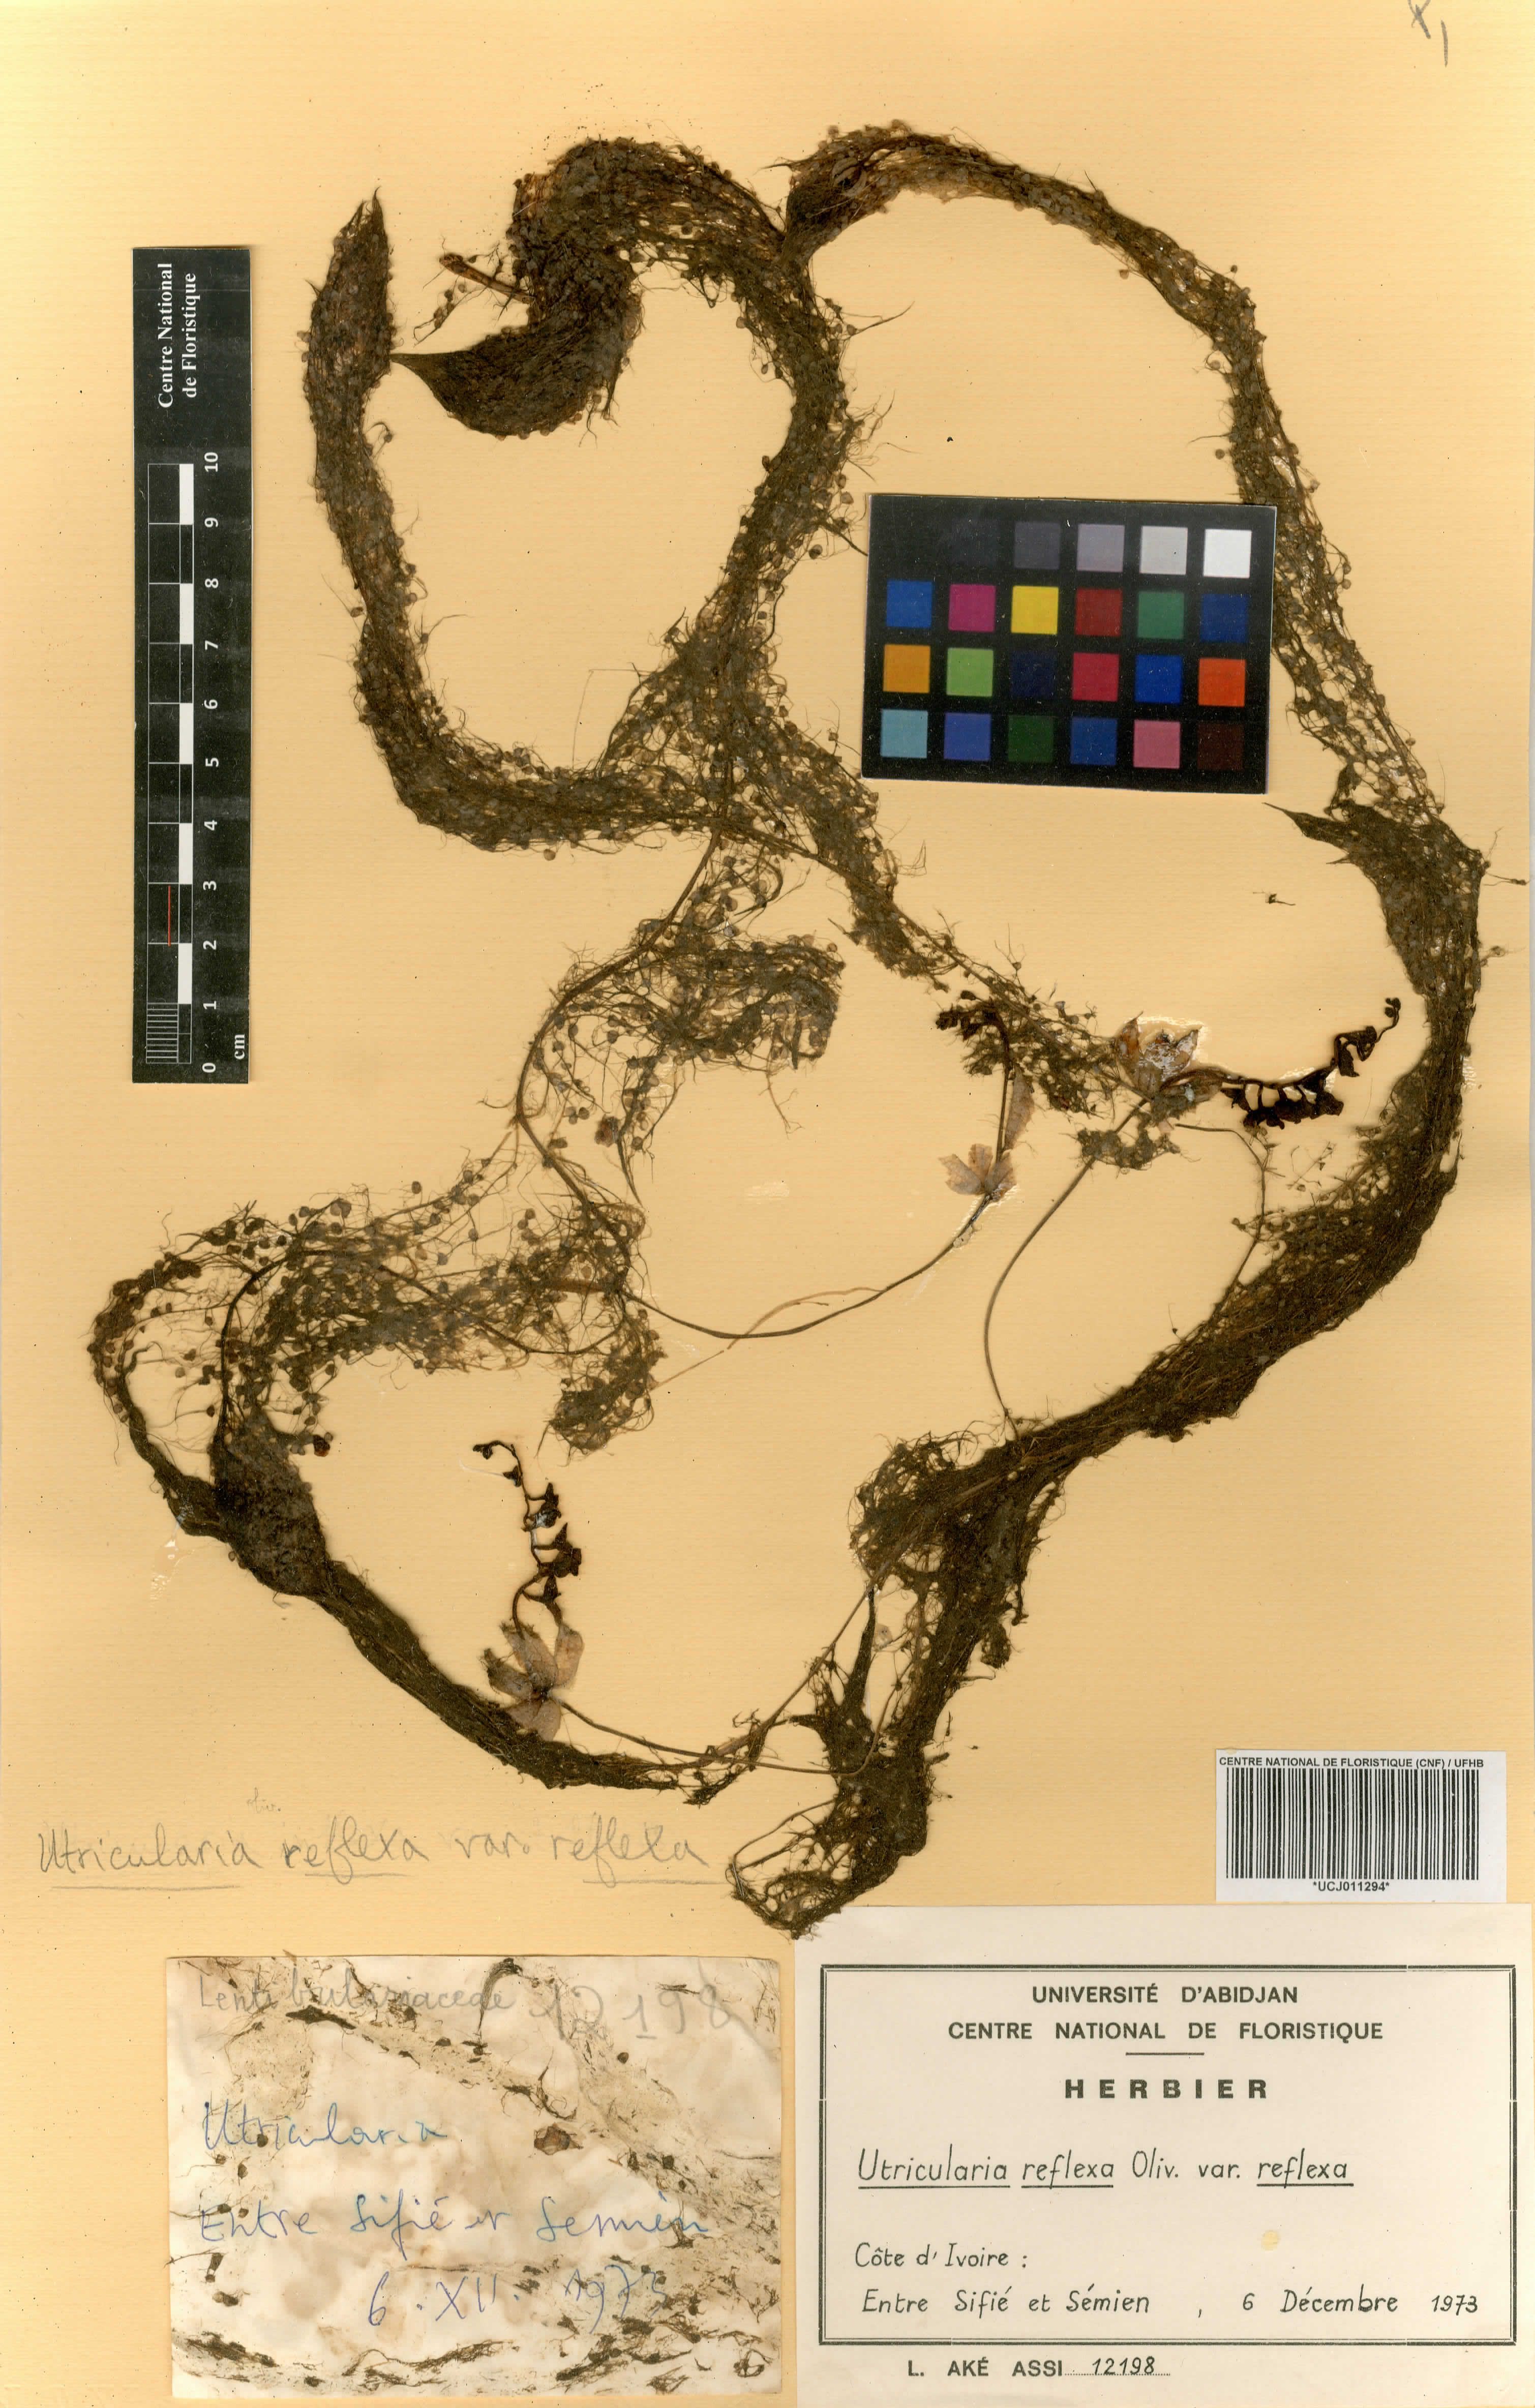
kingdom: Plantae
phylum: Tracheophyta
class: Magnoliopsida
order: Lamiales
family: Lentibulariaceae
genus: Utricularia
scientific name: Utricularia rigida
